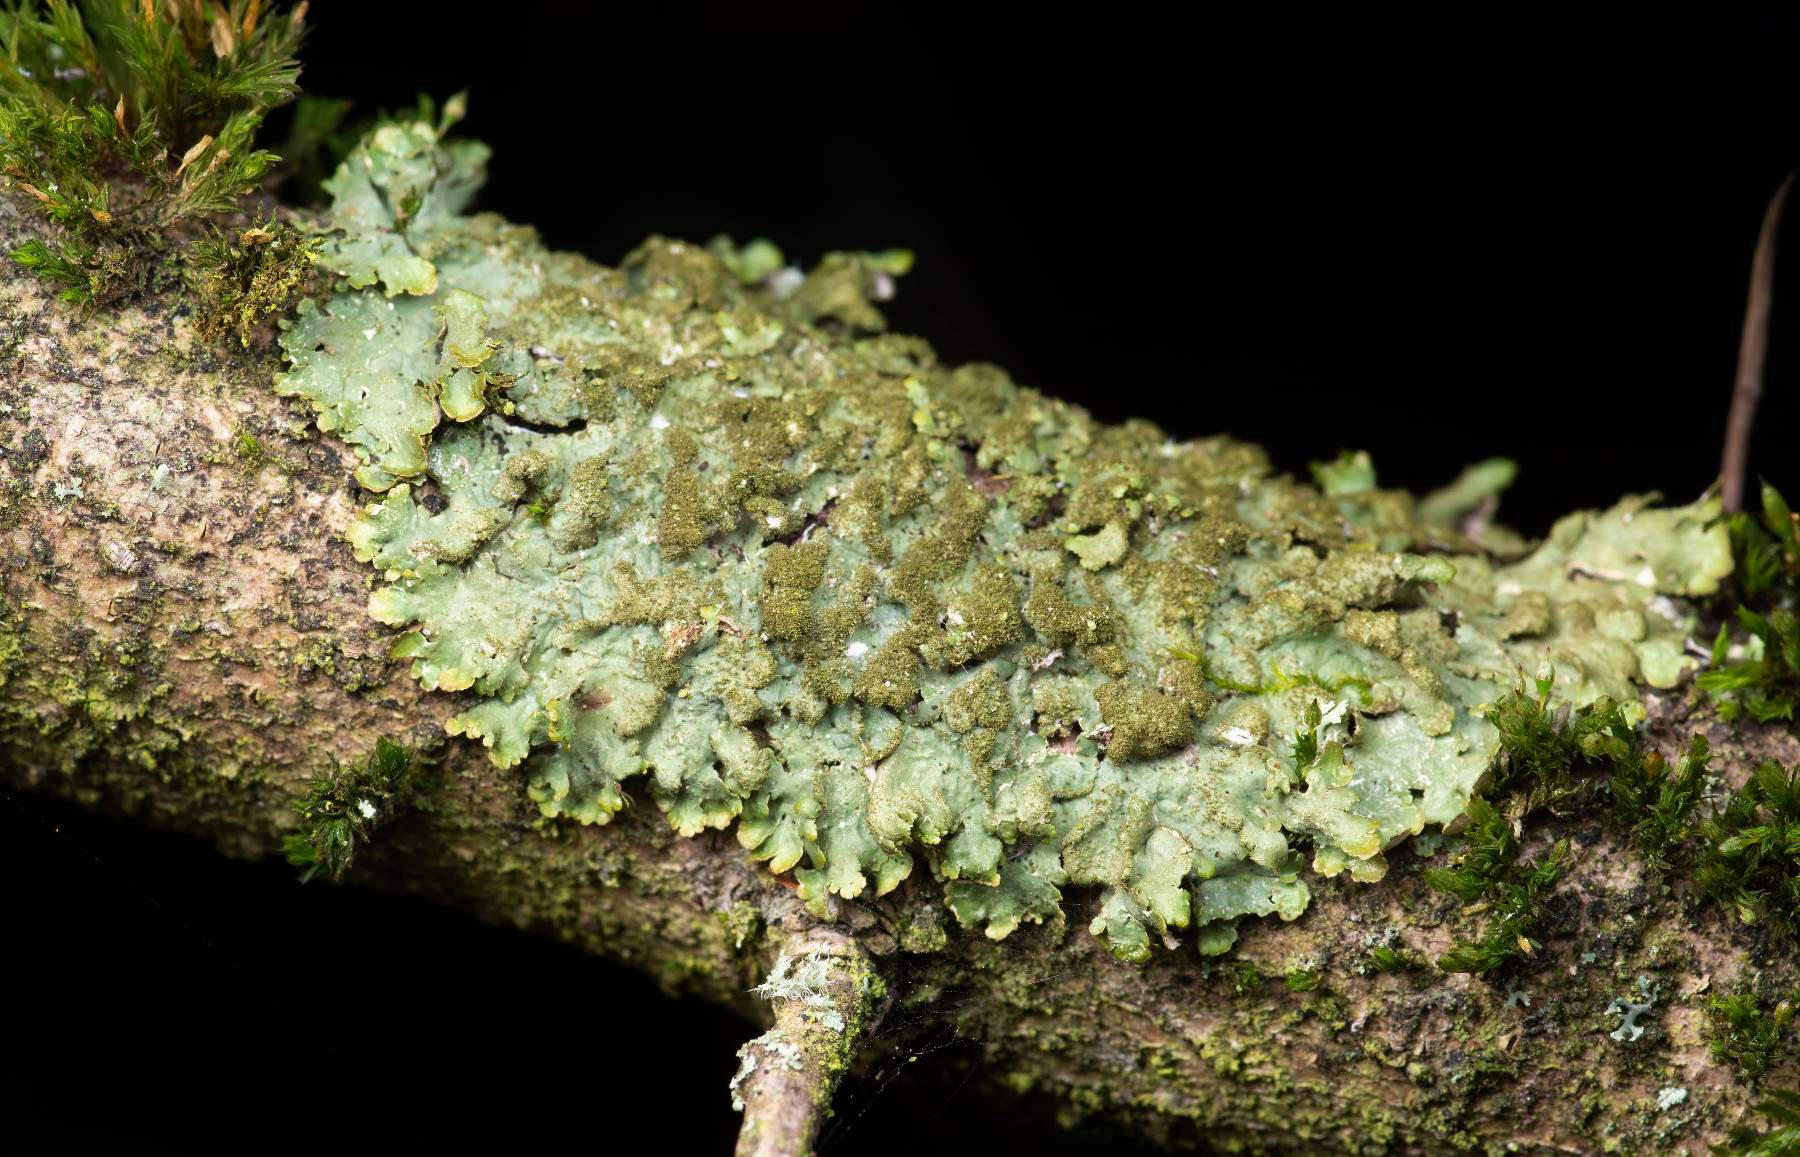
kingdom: Fungi
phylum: Ascomycota
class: Lecanoromycetes
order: Lecanorales
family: Parmeliaceae
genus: Melanelixia
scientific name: Melanelixia glabratula
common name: glinsende skållav
